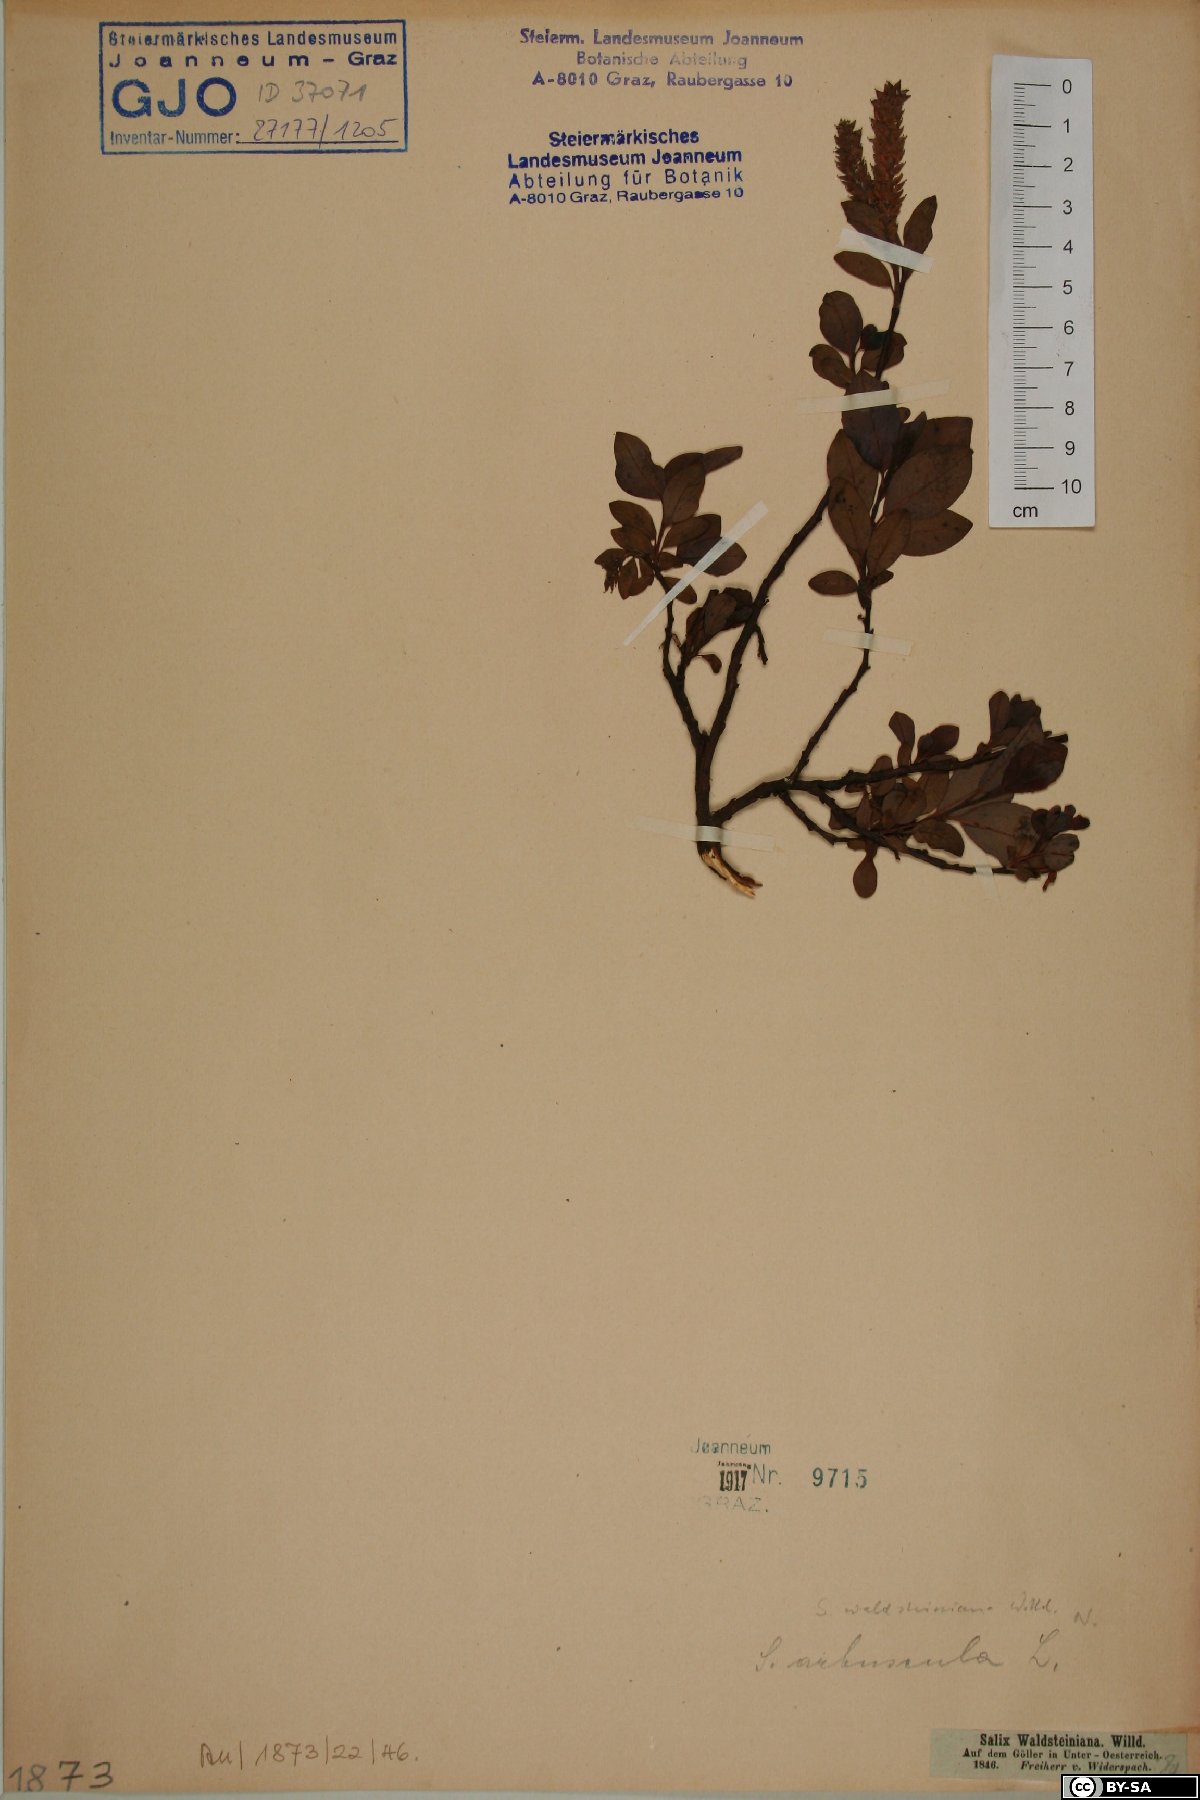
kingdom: Plantae
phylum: Tracheophyta
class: Magnoliopsida
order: Malpighiales
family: Salicaceae
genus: Salix
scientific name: Salix waldsteiniana
